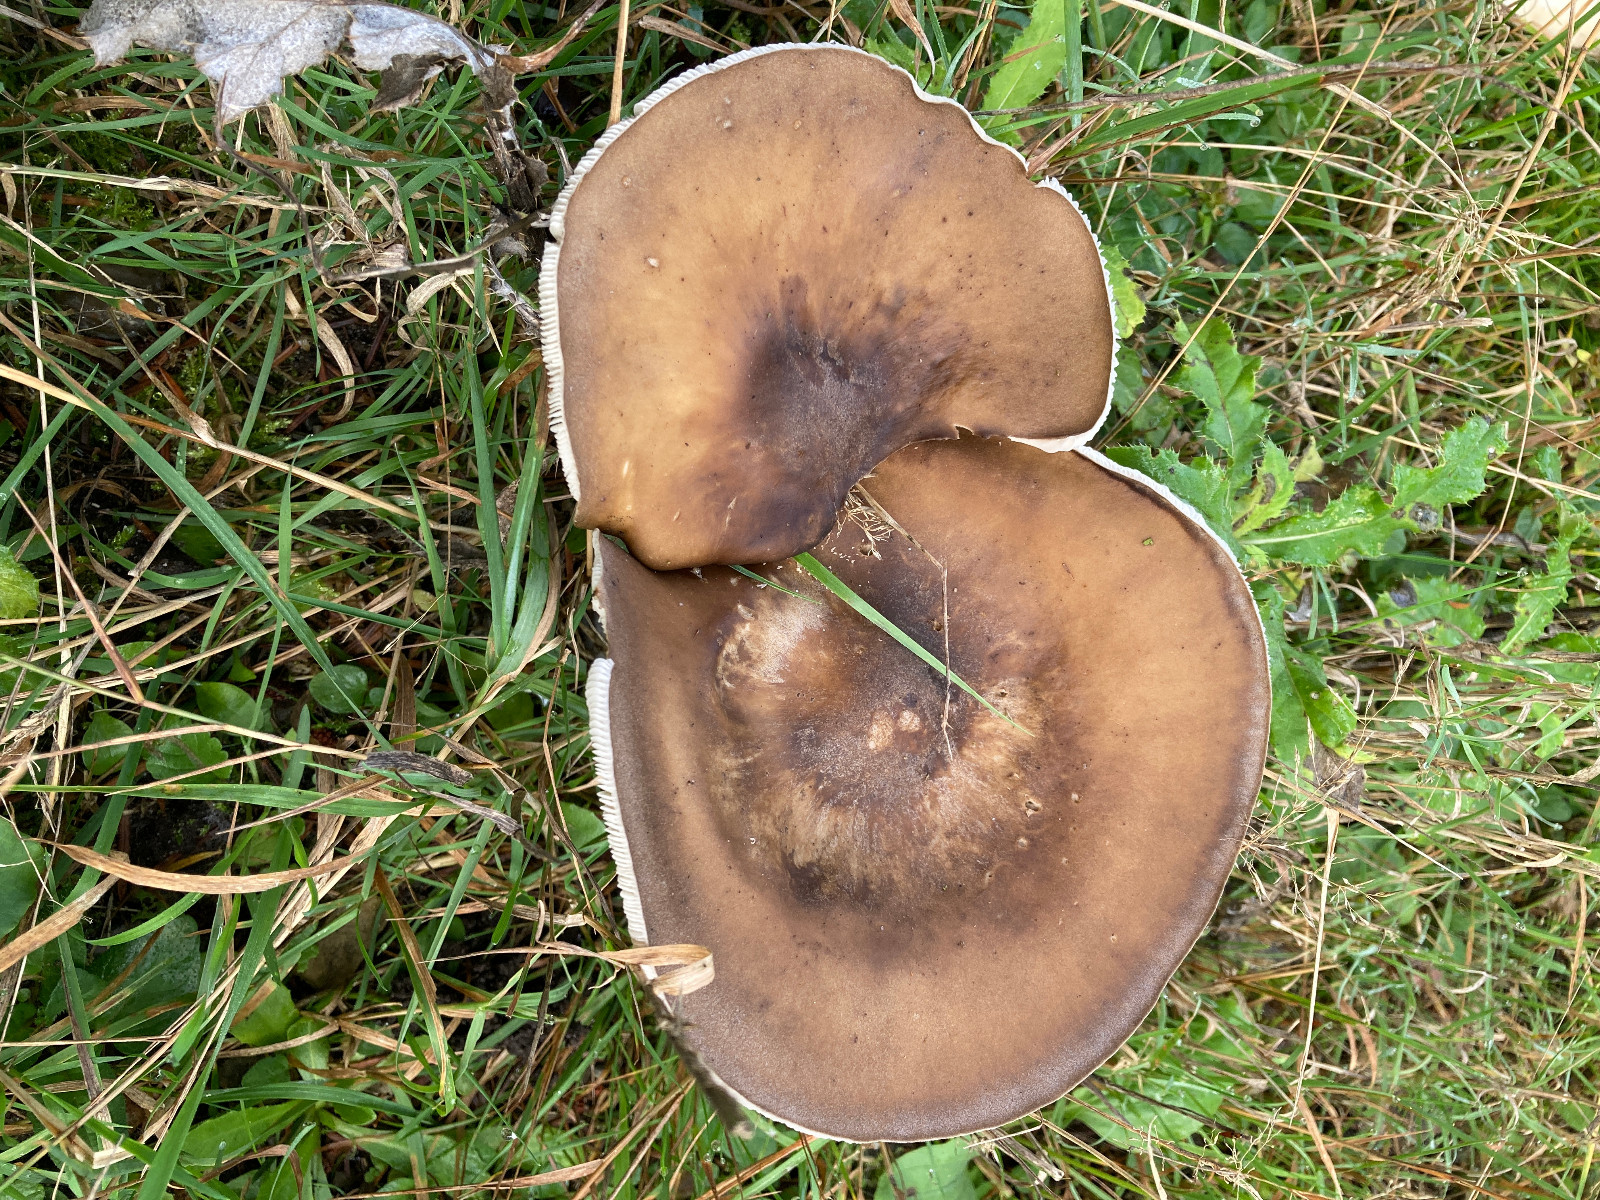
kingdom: Fungi
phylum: Basidiomycota
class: Agaricomycetes
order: Agaricales
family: Tricholomataceae
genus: Melanoleuca
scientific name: Melanoleuca
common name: munkehat
